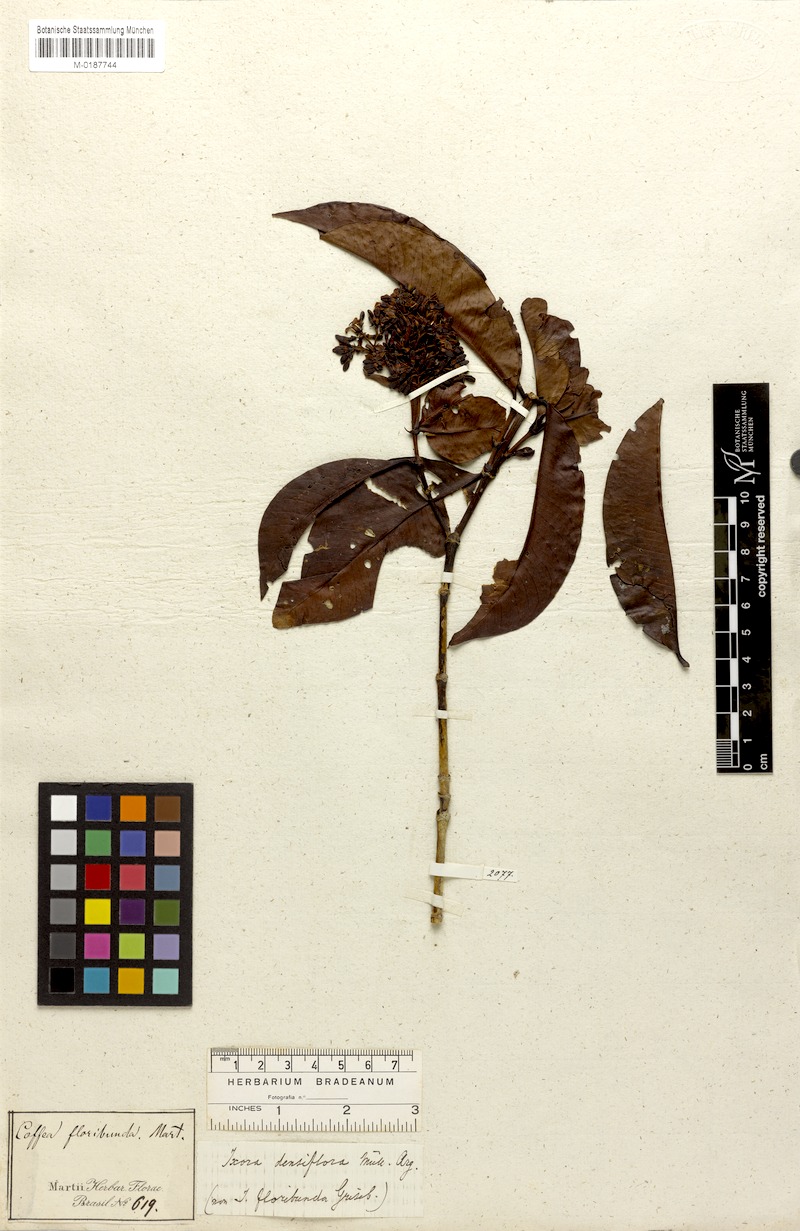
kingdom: Plantae
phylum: Tracheophyta
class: Magnoliopsida
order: Gentianales
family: Rubiaceae
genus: Ixora
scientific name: Ixora densiflora
